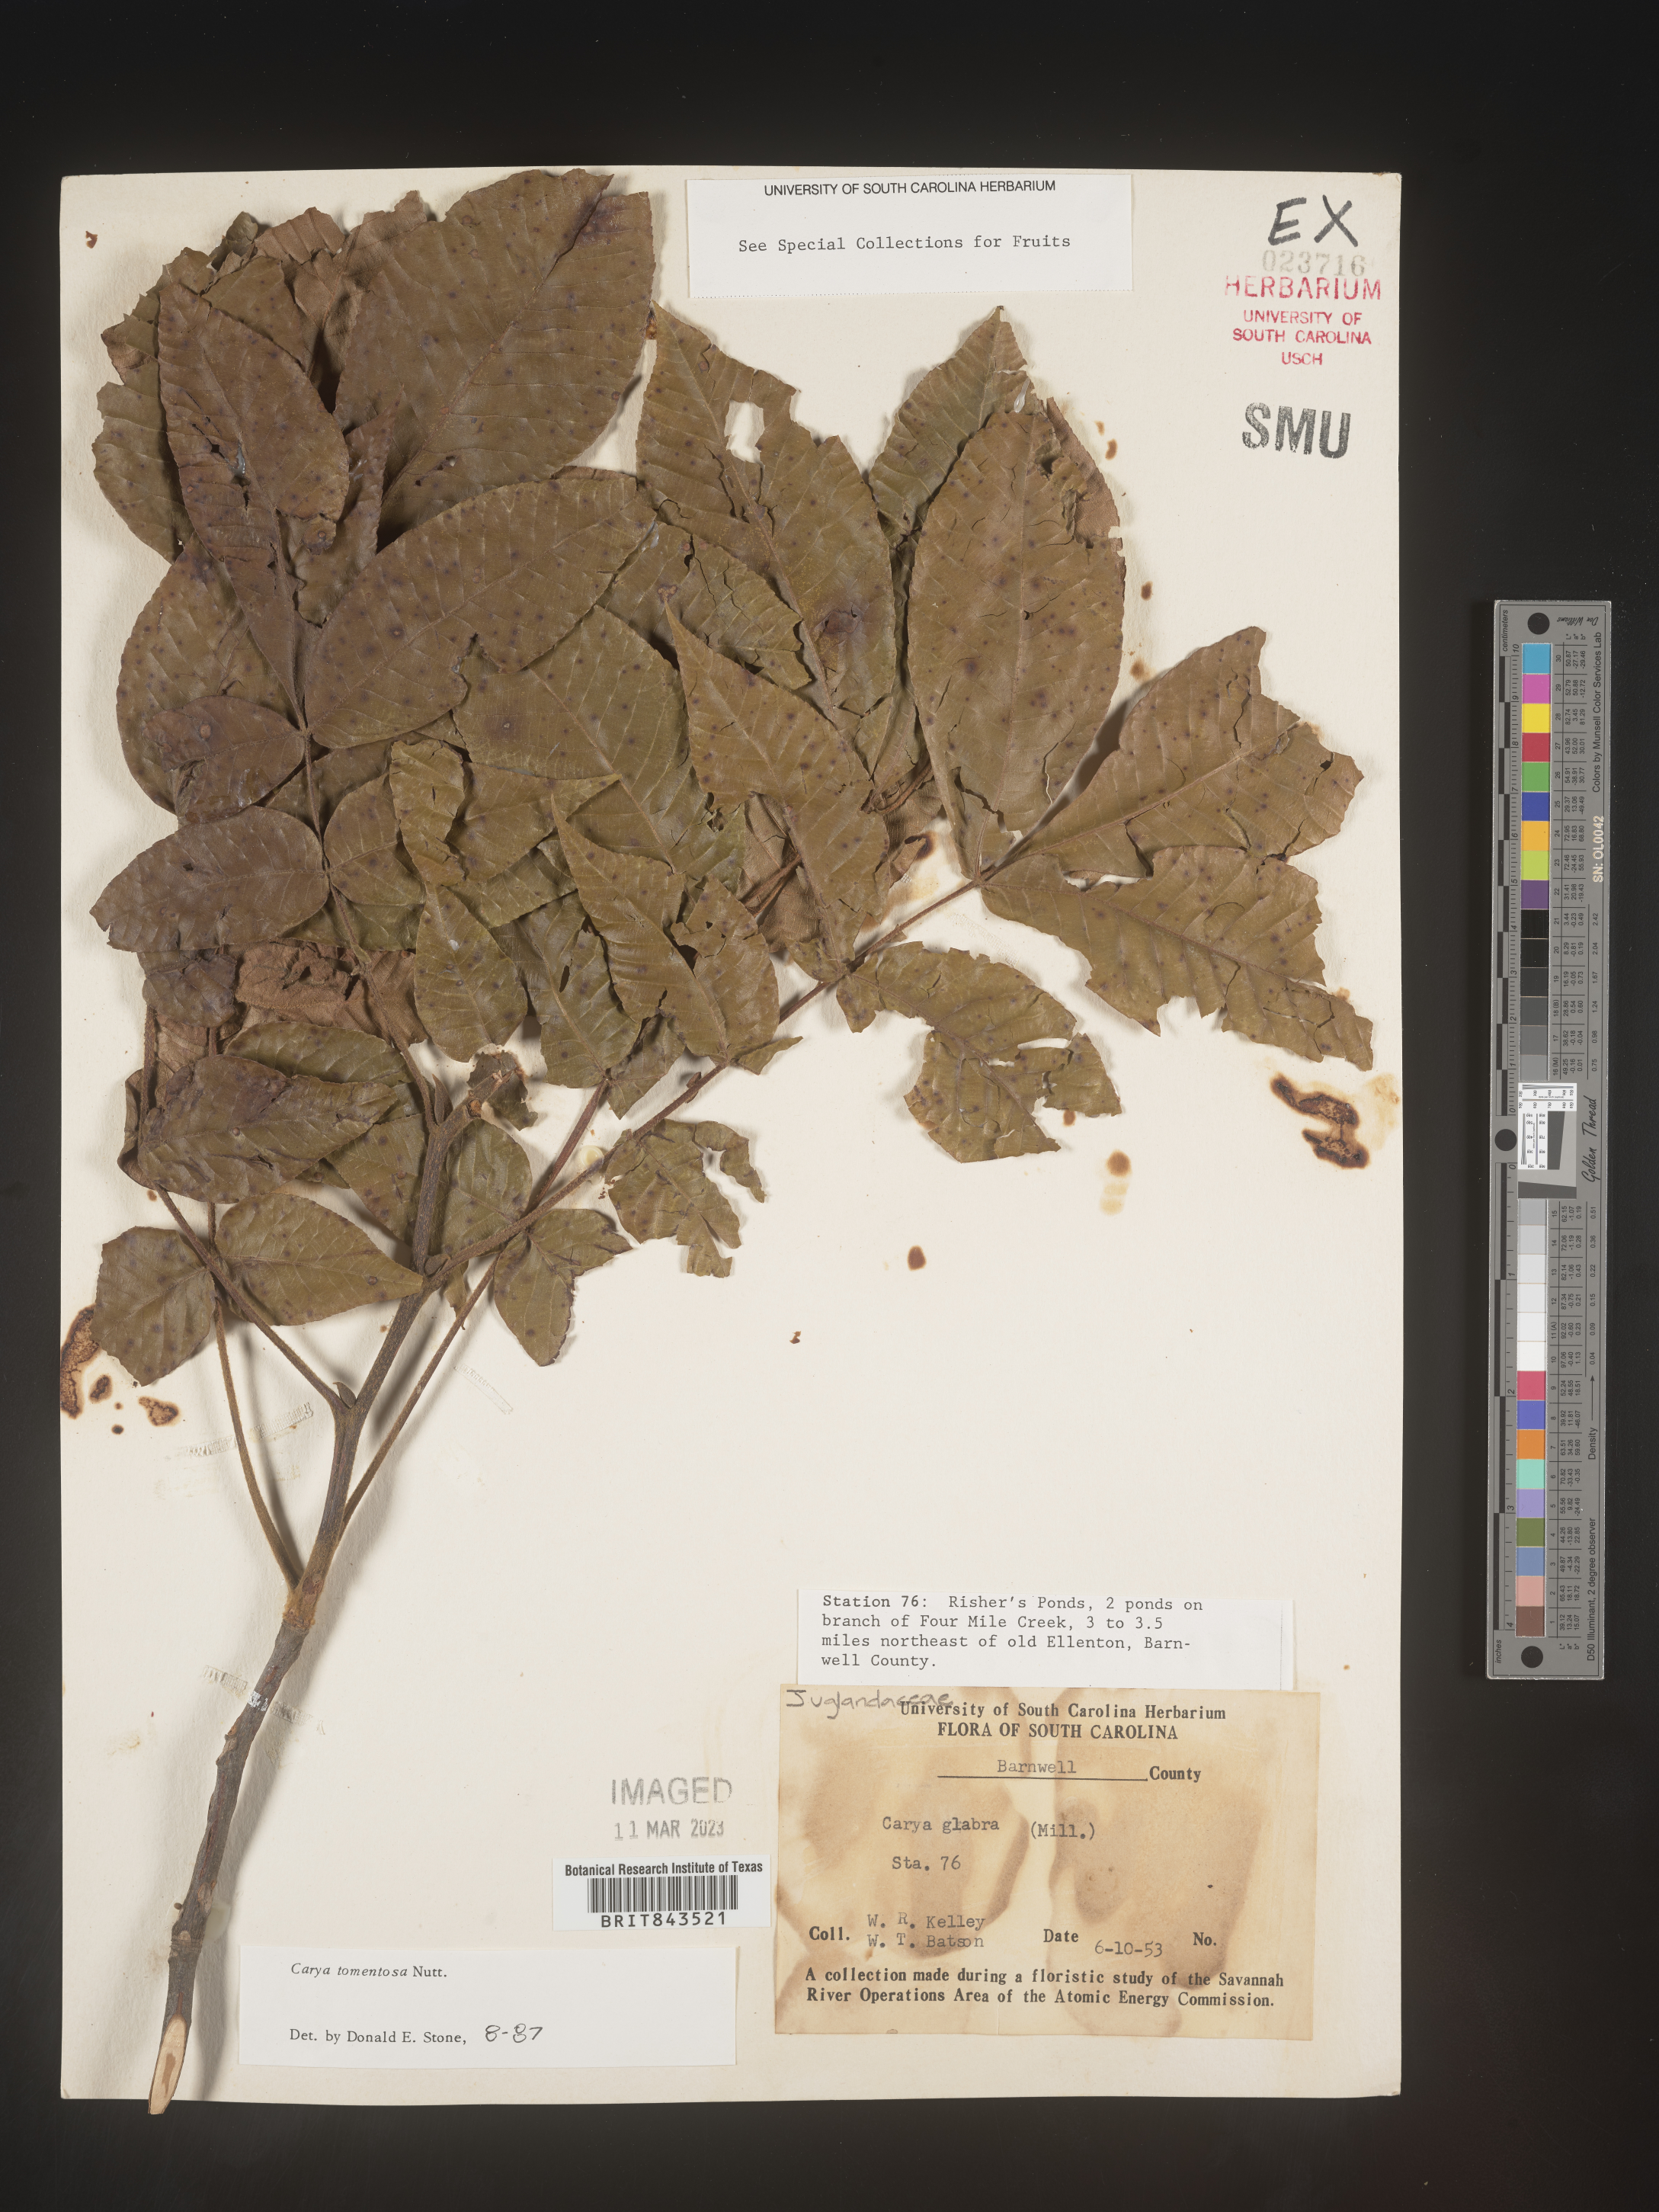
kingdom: Plantae
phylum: Tracheophyta
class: Magnoliopsida
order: Fagales
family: Juglandaceae
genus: Carya
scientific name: Carya glabra
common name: Pignut hickory
